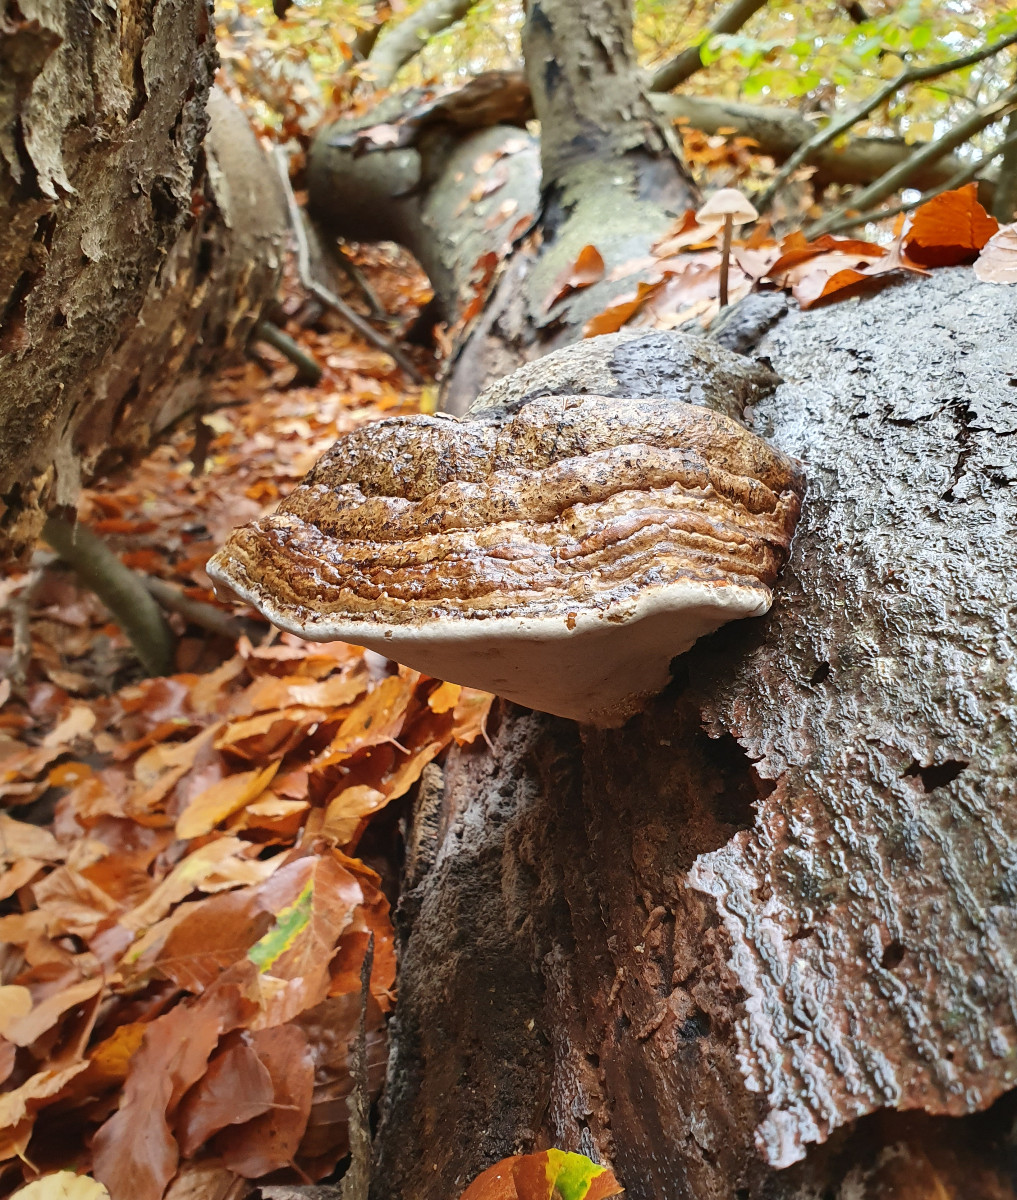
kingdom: Fungi
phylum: Basidiomycota
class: Agaricomycetes
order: Polyporales
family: Polyporaceae
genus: Fomes
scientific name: Fomes fomentarius
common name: tøndersvamp
